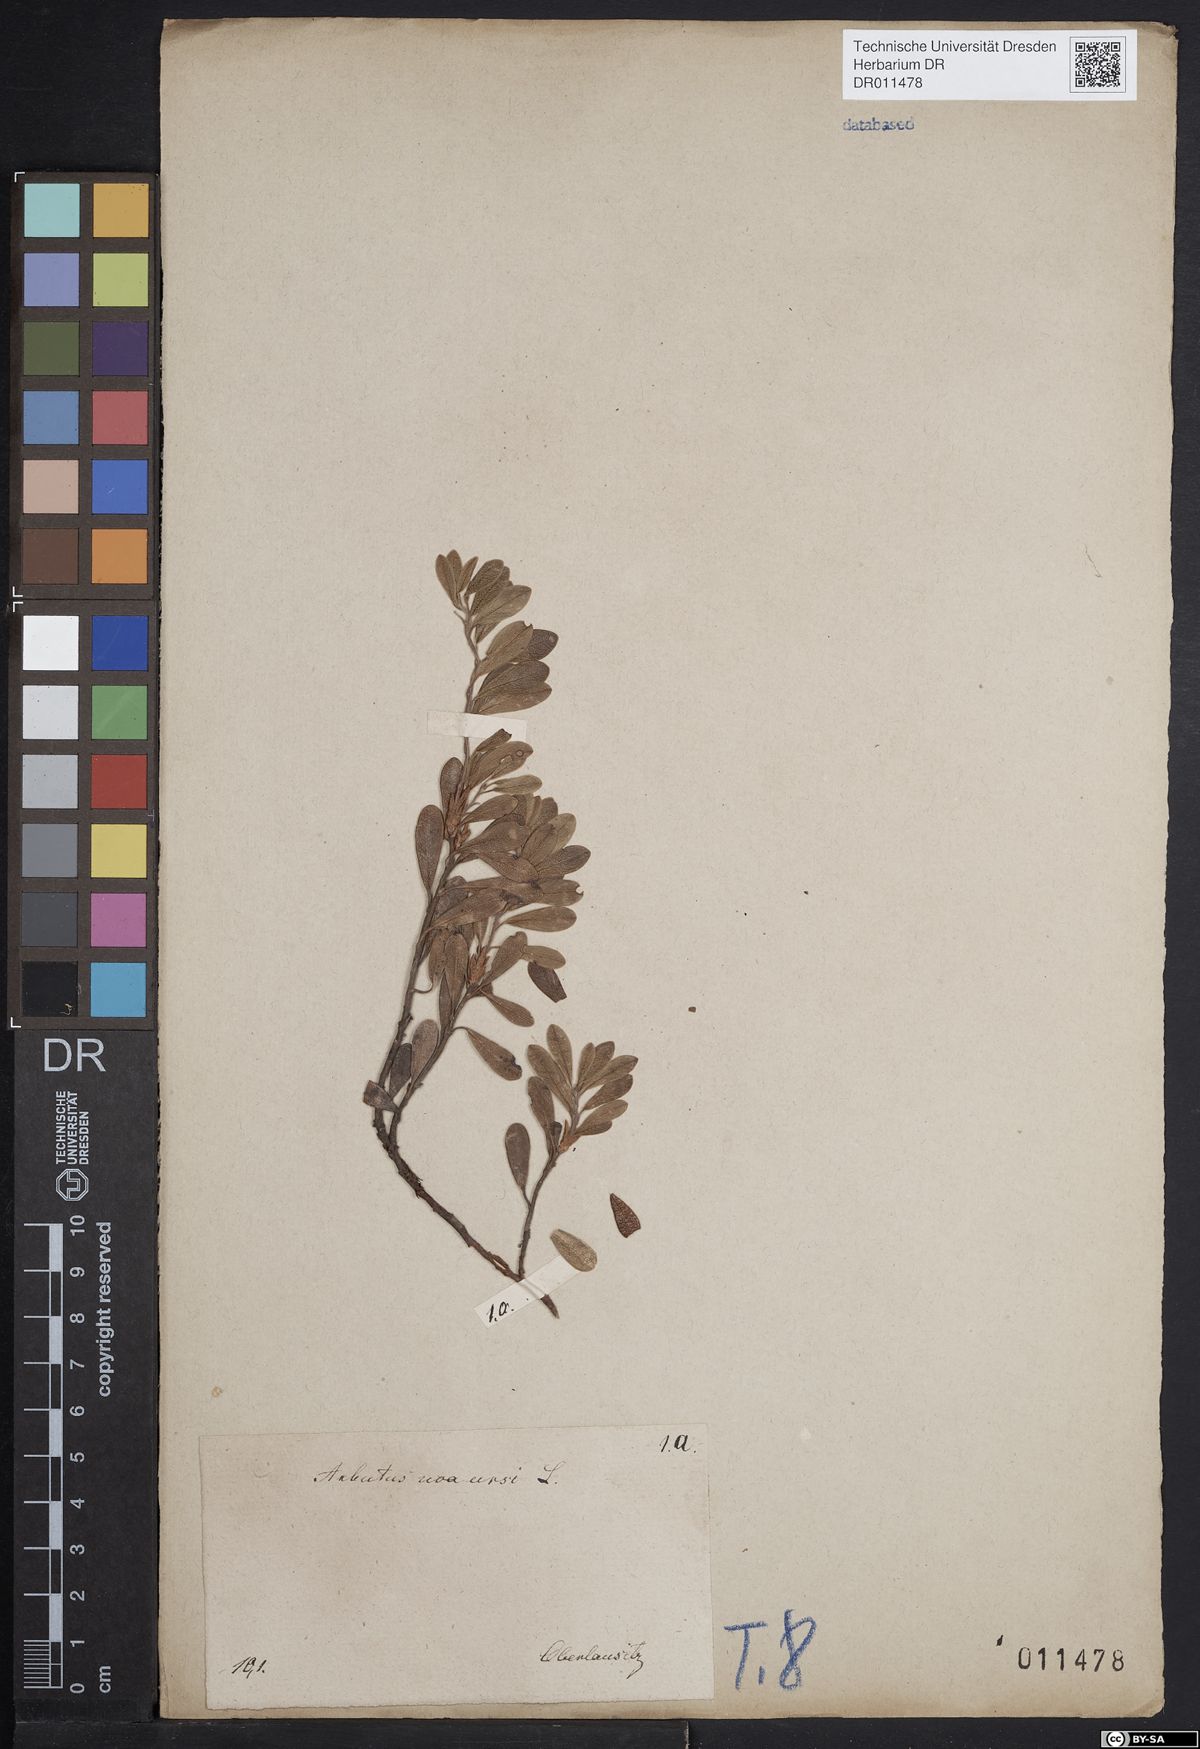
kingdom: Plantae
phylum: Tracheophyta
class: Magnoliopsida
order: Ericales
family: Ericaceae
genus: Arctostaphylos
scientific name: Arctostaphylos uva-ursi
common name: Bearberry
